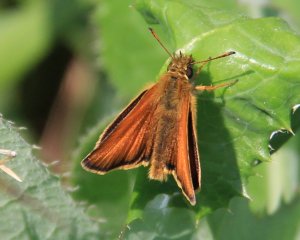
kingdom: Animalia
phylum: Arthropoda
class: Insecta
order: Lepidoptera
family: Hesperiidae
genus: Thymelicus
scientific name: Thymelicus lineola
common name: European Skipper
